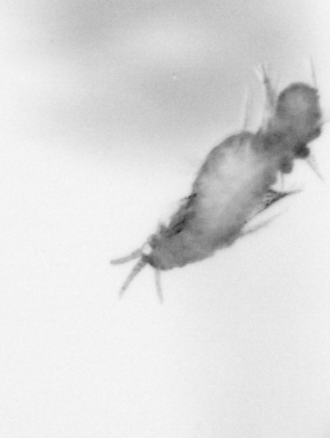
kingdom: Animalia
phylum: Annelida
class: Polychaeta
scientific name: Polychaeta
